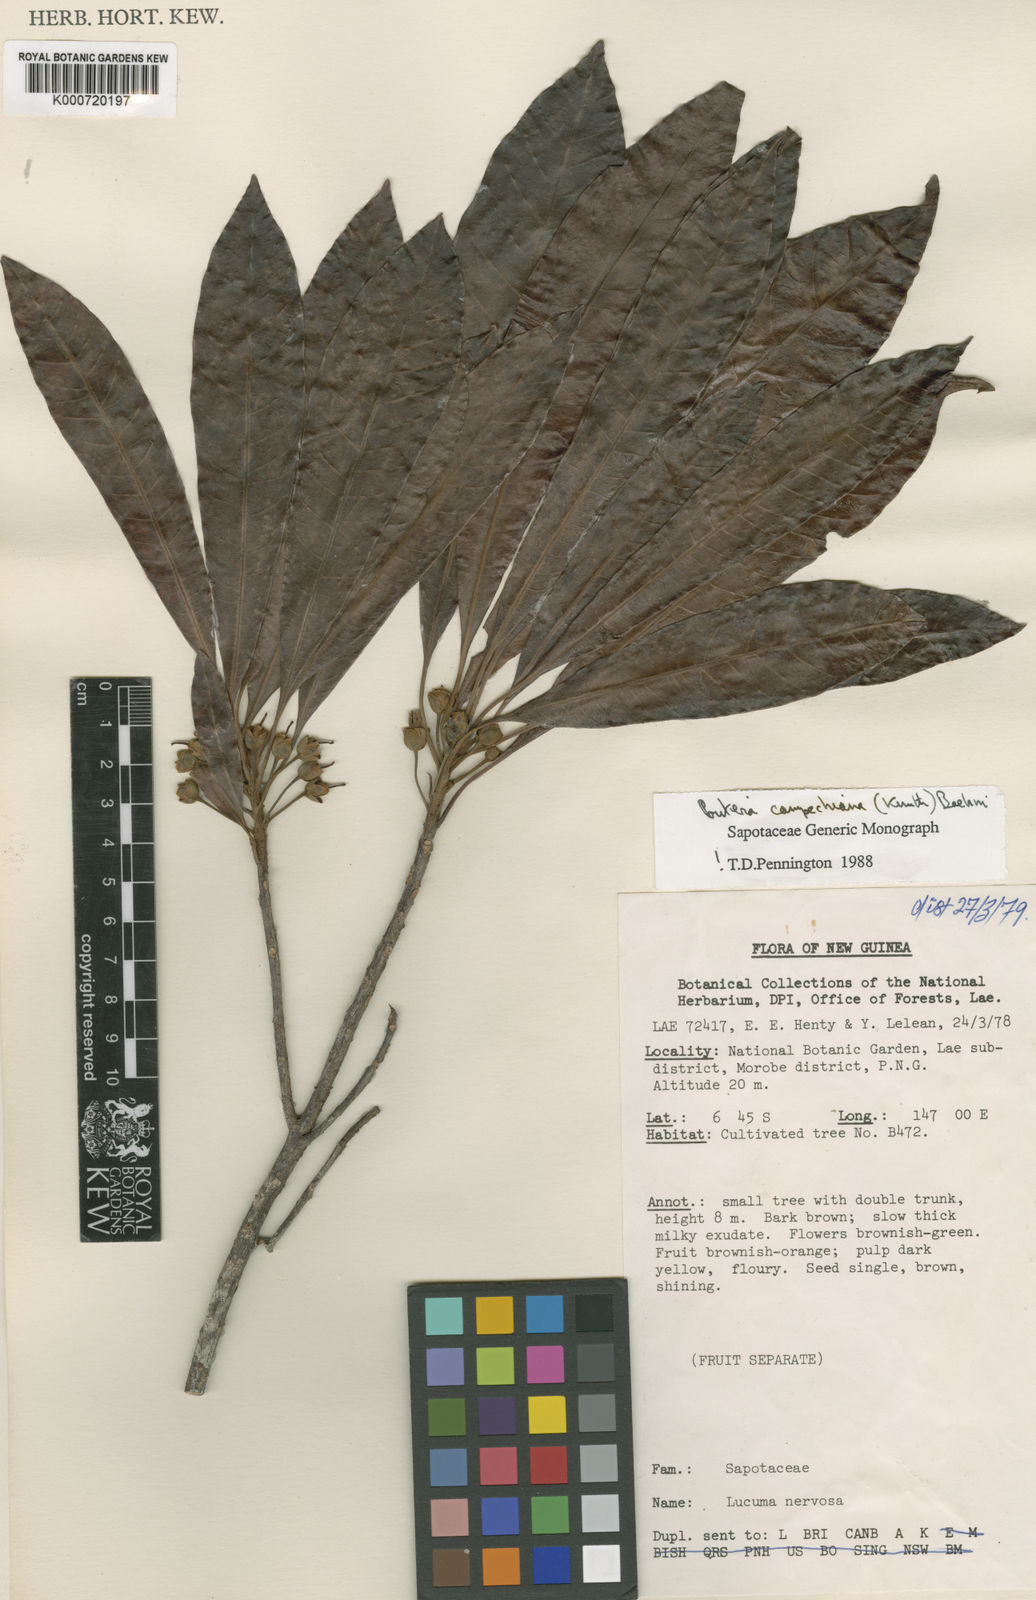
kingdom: Plantae
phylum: Tracheophyta
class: Magnoliopsida
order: Ericales
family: Sapotaceae
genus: Pouteria
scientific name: Pouteria campechiana
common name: Canistel
